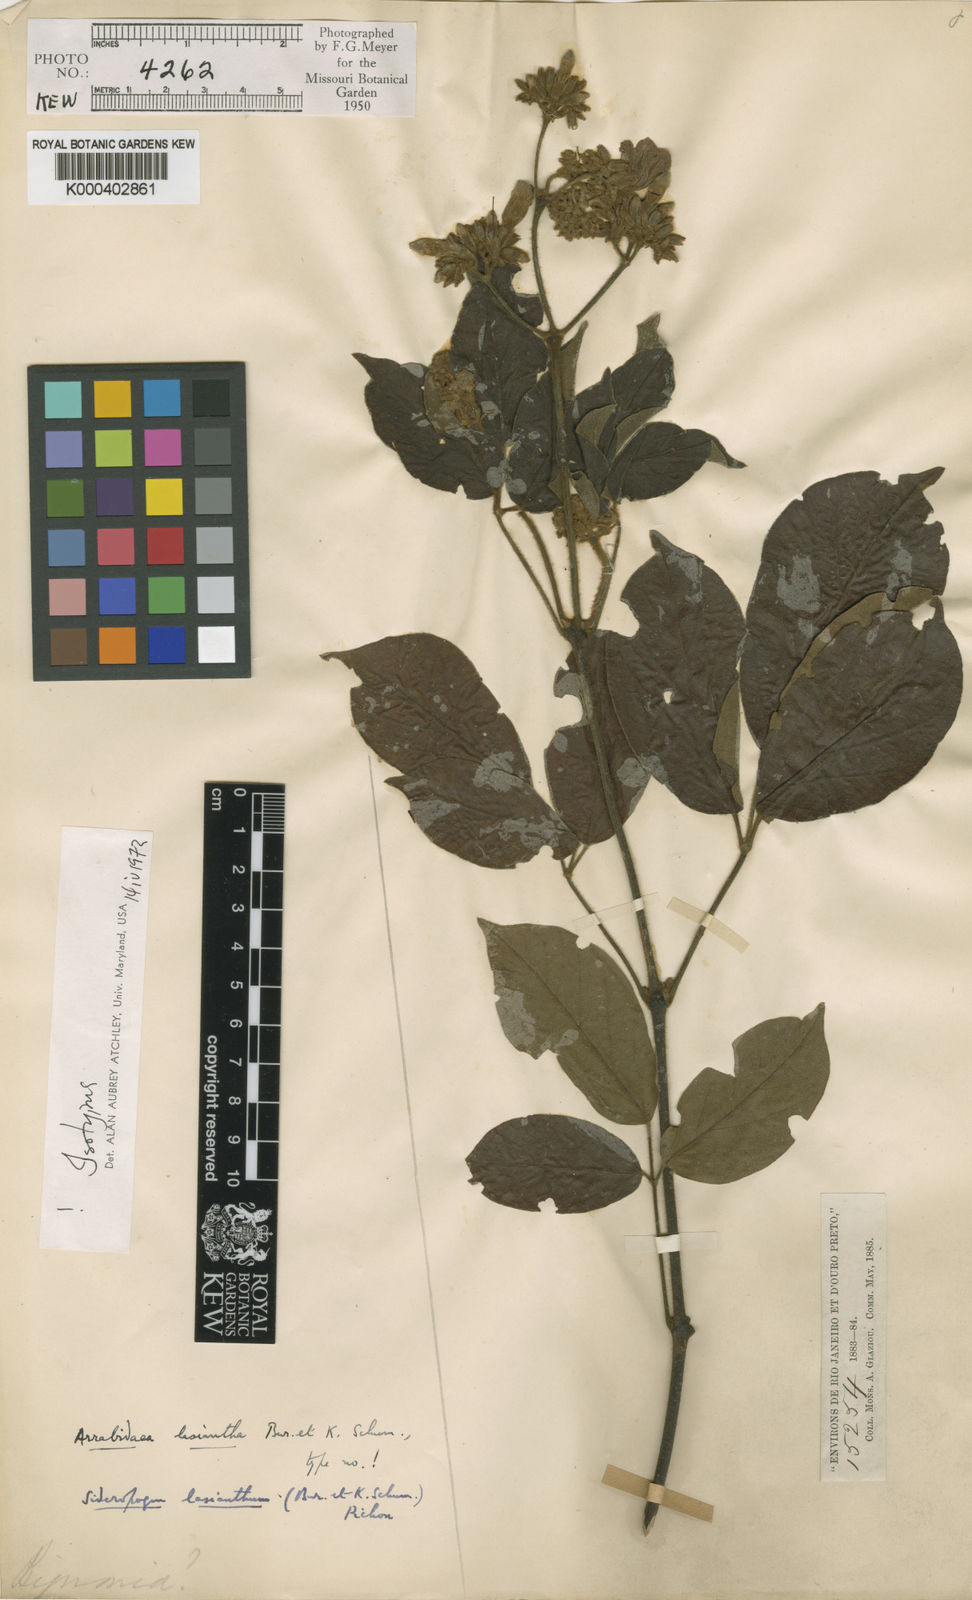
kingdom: Plantae
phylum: Tracheophyta
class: Magnoliopsida
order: Lamiales
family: Bignoniaceae
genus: Fridericia
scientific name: Fridericia
